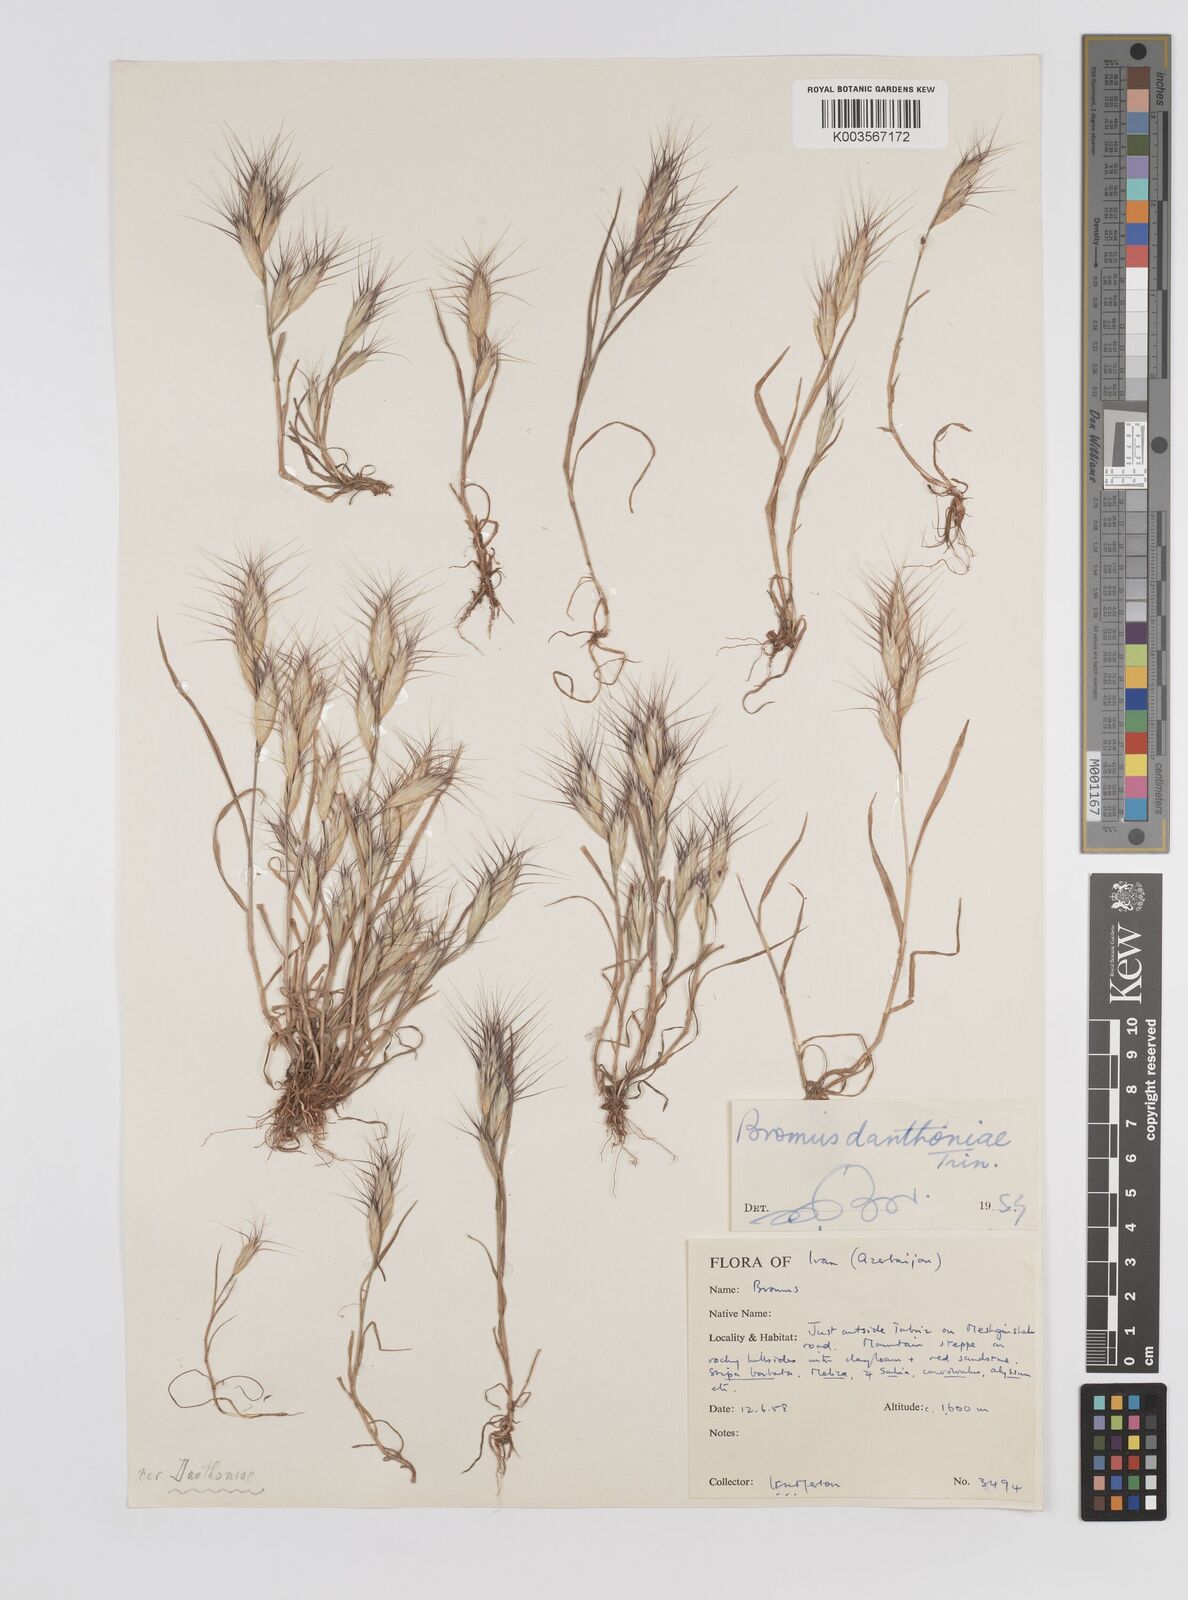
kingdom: Plantae
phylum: Tracheophyta
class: Liliopsida
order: Poales
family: Poaceae
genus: Bromus
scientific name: Bromus danthoniae
